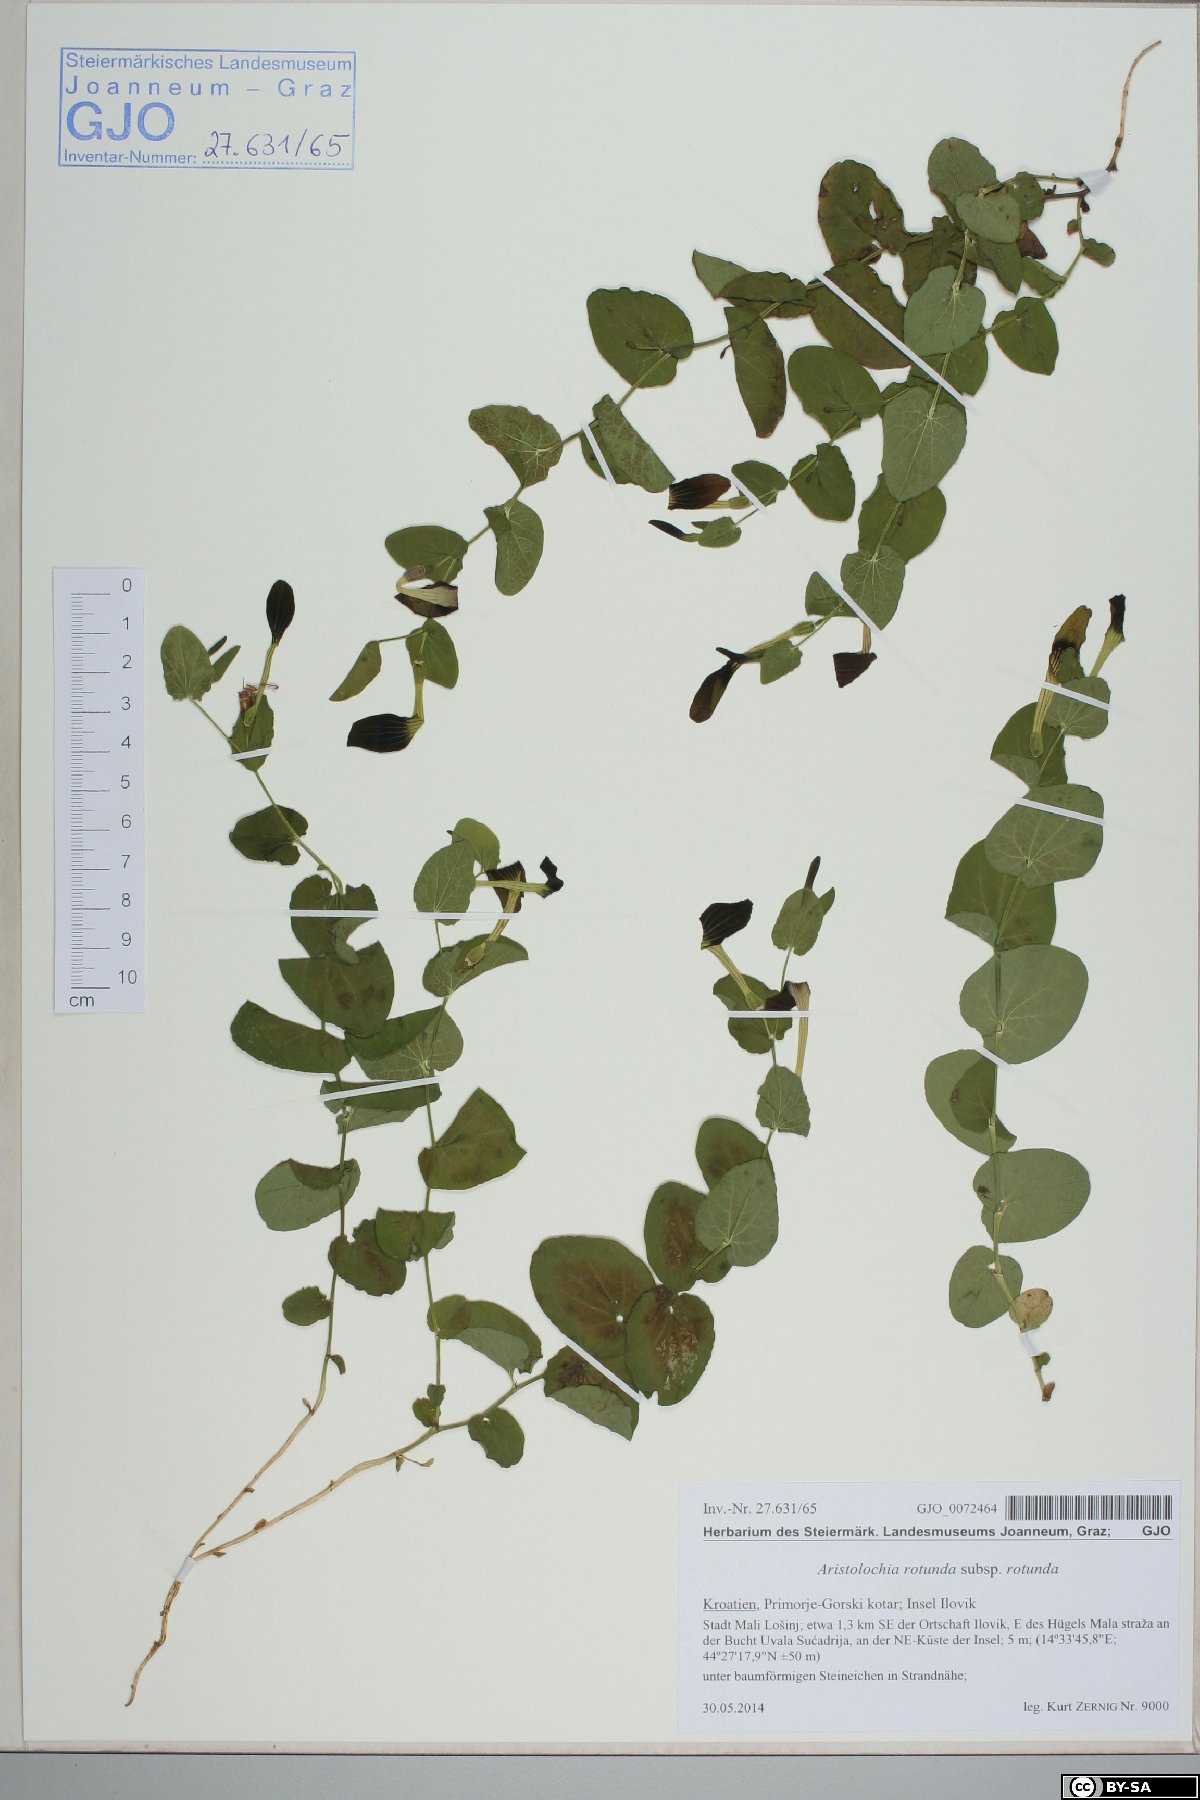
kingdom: Plantae
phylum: Tracheophyta
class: Magnoliopsida
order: Piperales
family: Aristolochiaceae
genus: Aristolochia
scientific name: Aristolochia rotunda
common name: Smearwort
